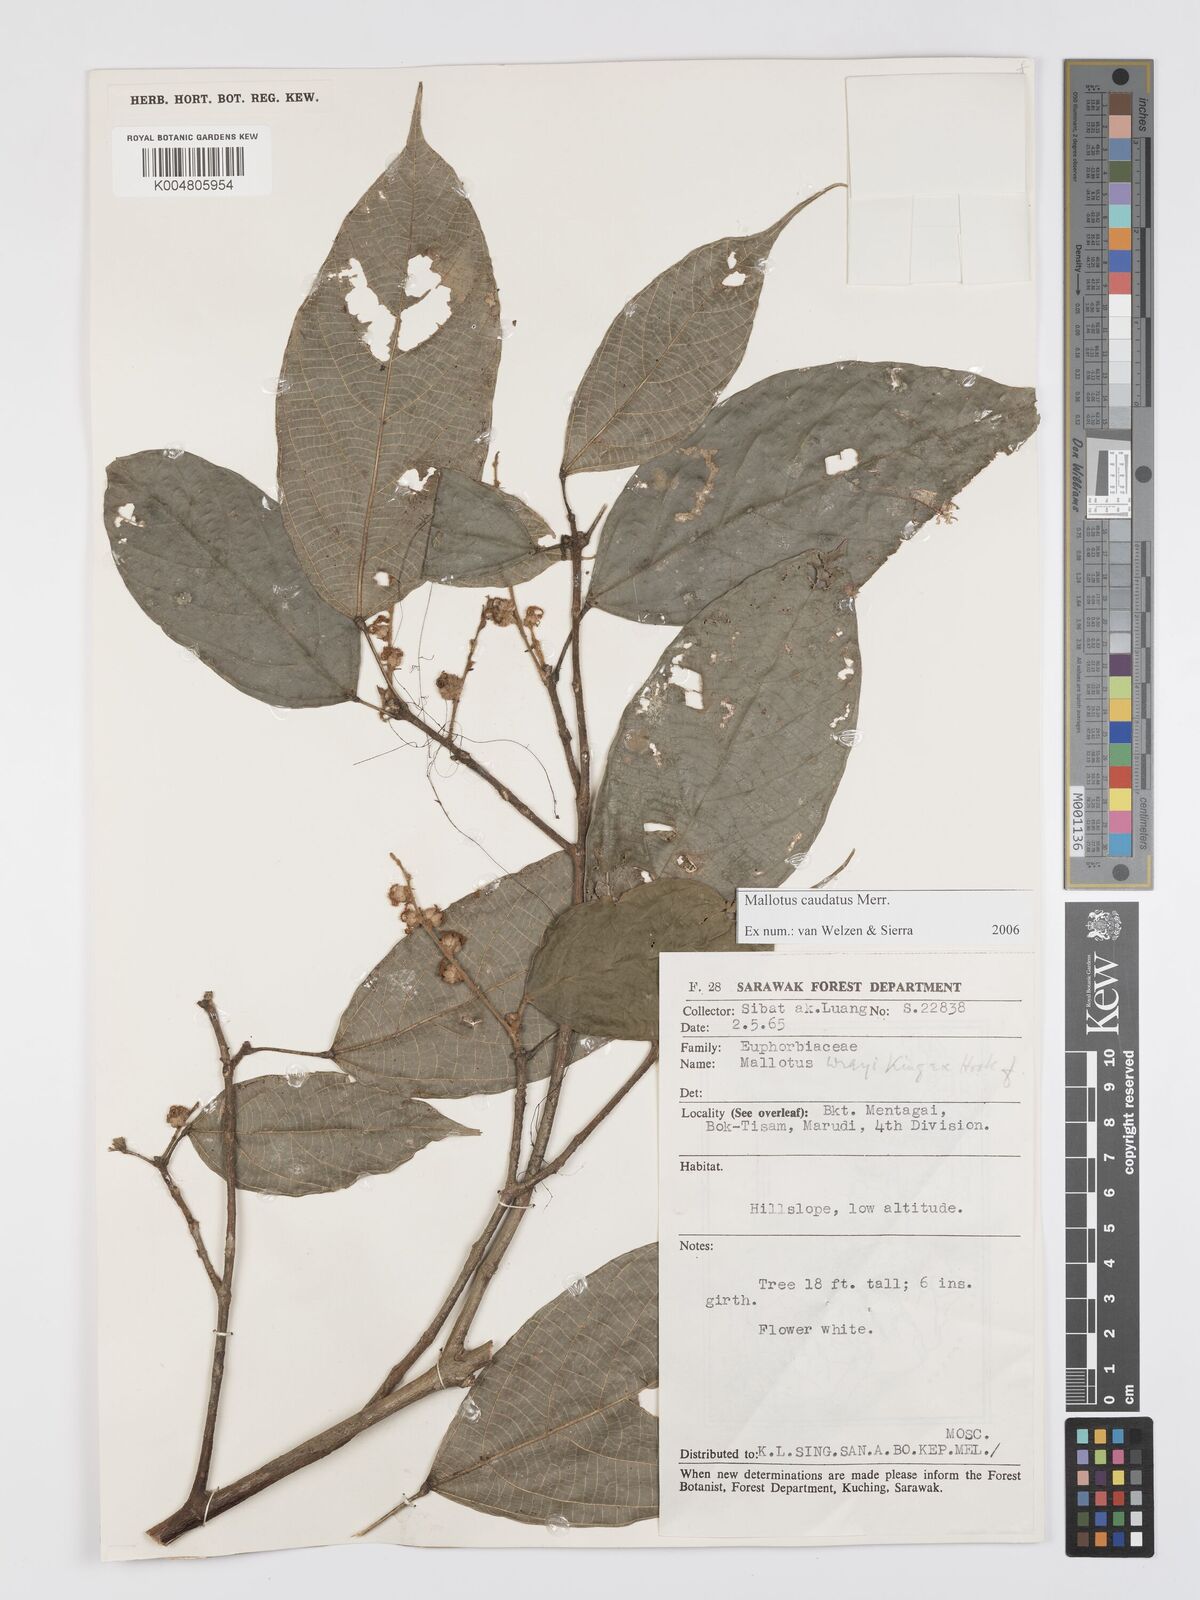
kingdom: Plantae
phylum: Tracheophyta
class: Magnoliopsida
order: Malpighiales
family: Euphorbiaceae
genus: Mallotus
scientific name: Mallotus caudatus
